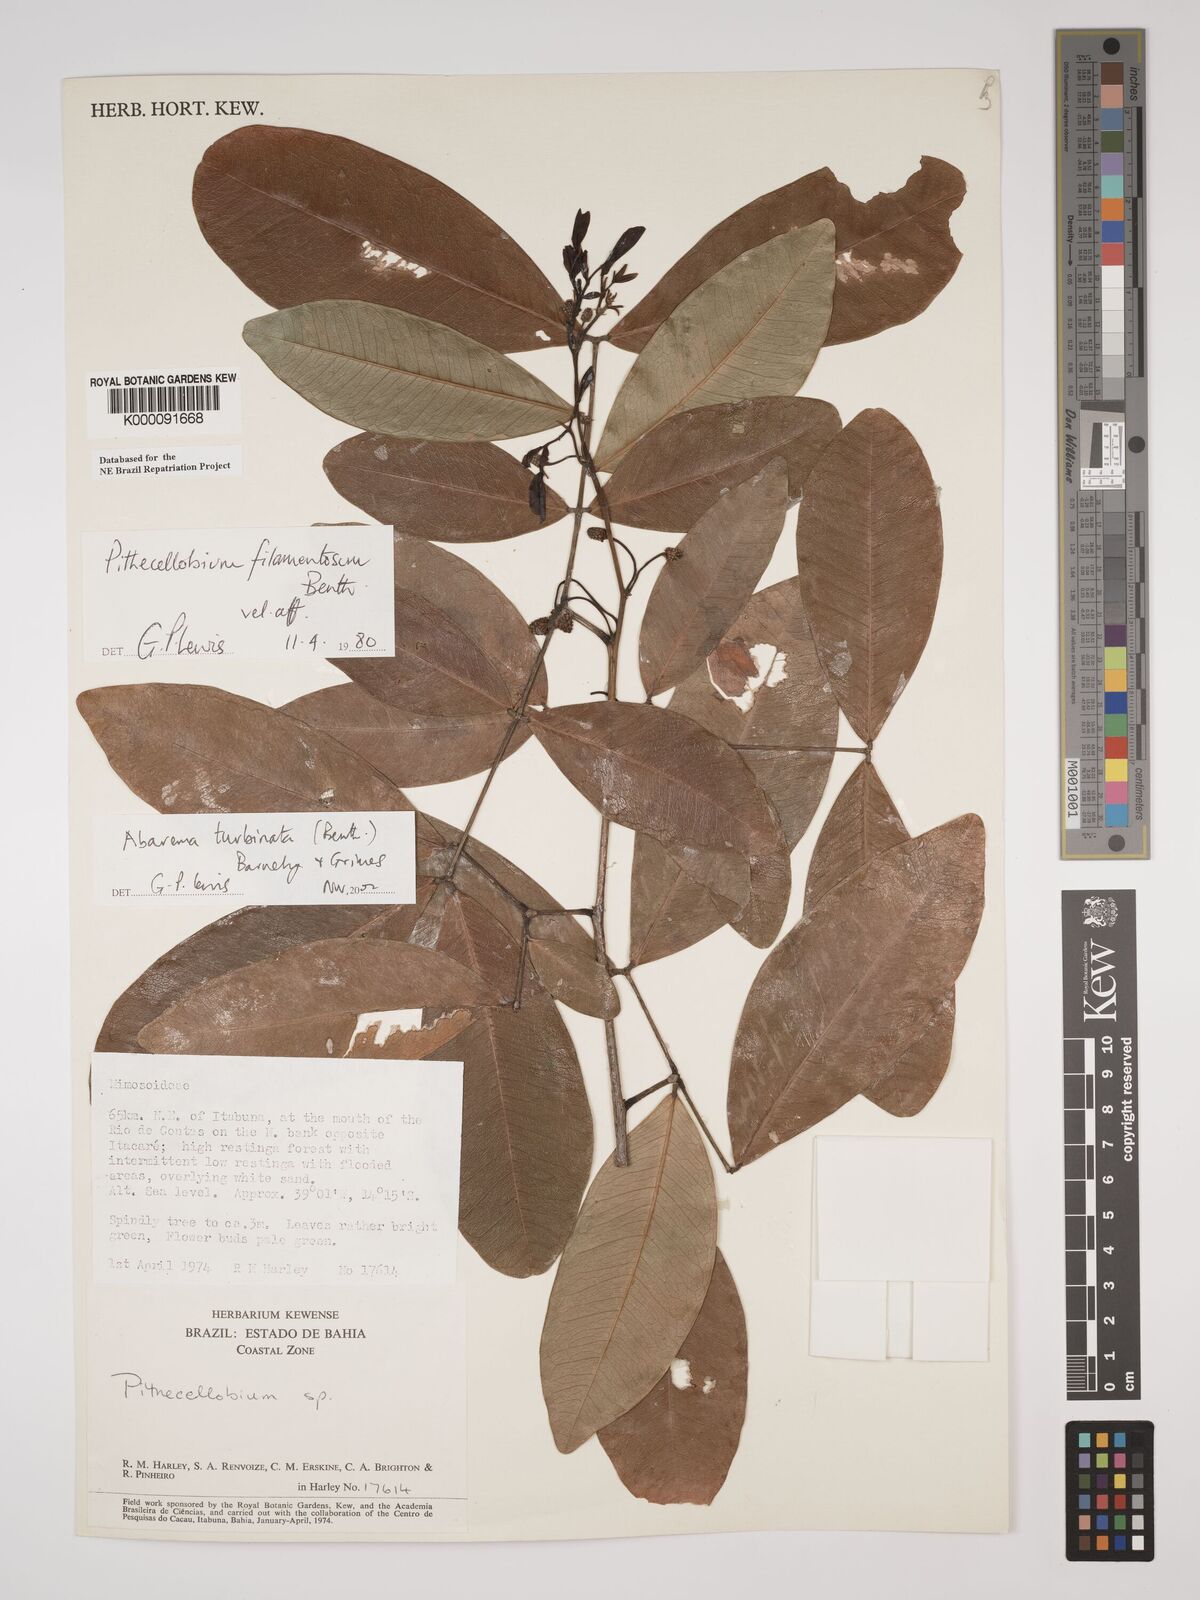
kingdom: Plantae
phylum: Tracheophyta
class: Magnoliopsida
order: Fabales
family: Fabaceae
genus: Jupunba
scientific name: Jupunba turbinata
